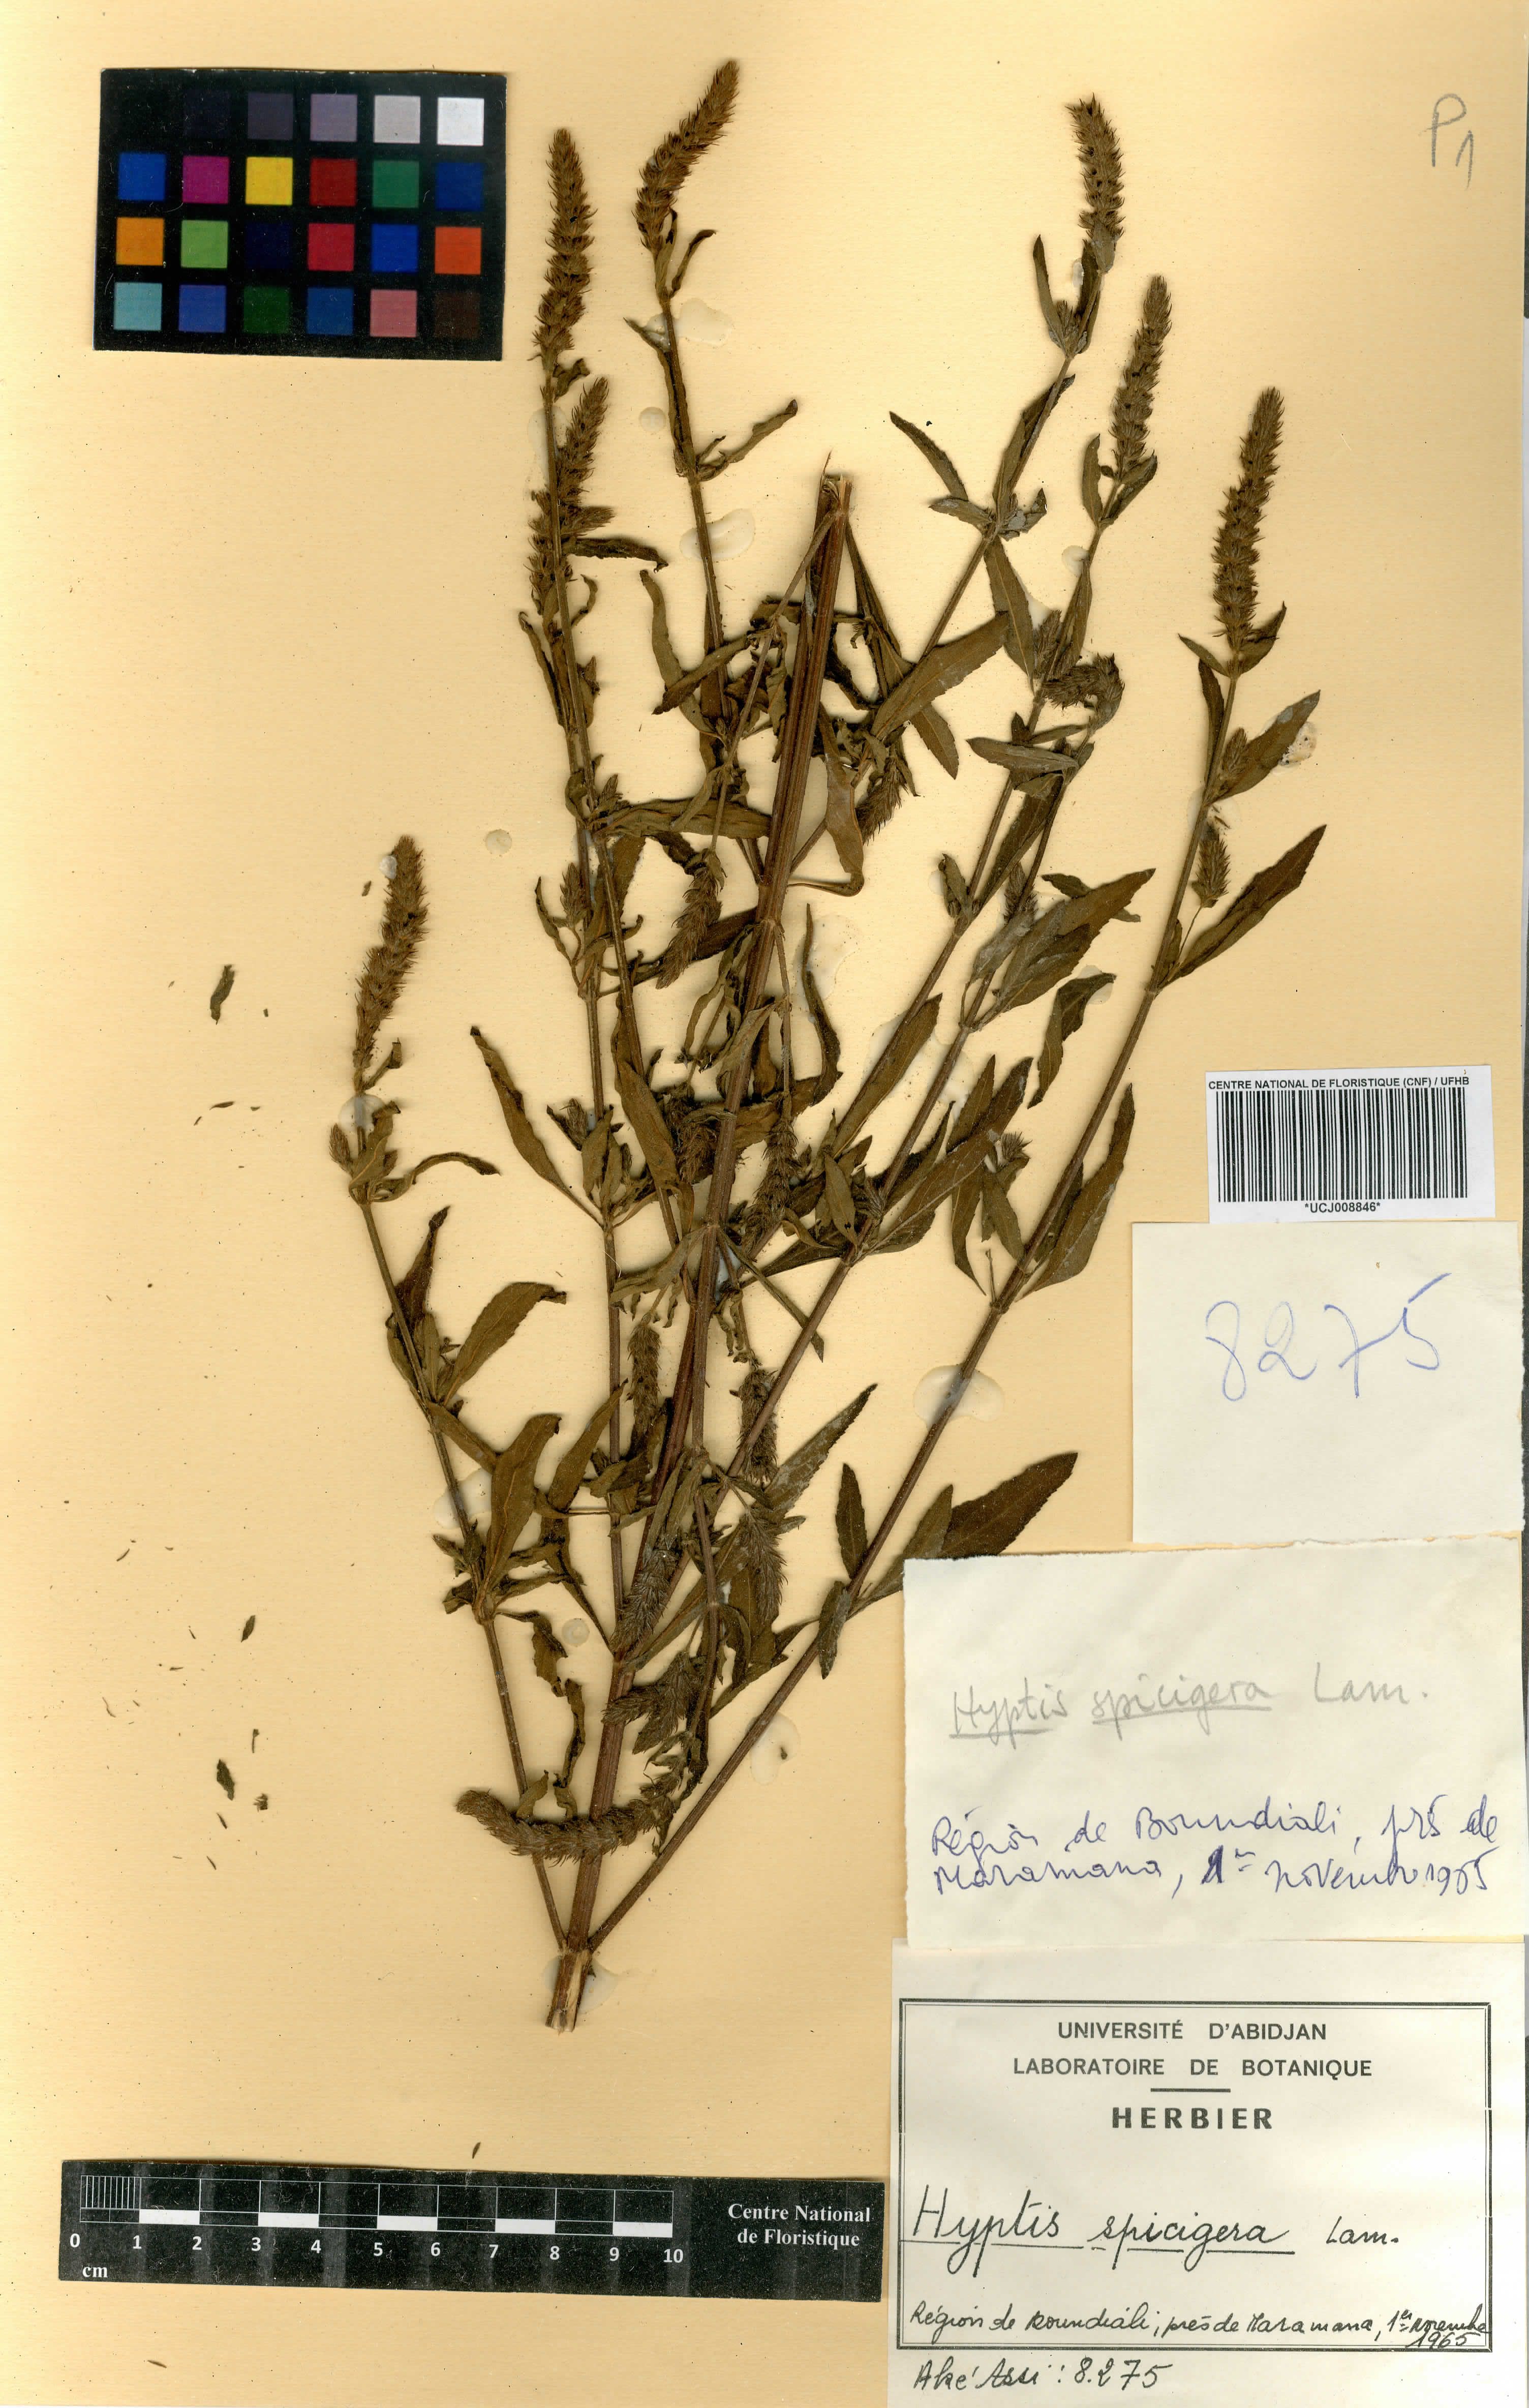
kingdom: Plantae
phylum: Tracheophyta
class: Magnoliopsida
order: Lamiales
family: Lamiaceae
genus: Cantinoa
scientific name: Cantinoa americana
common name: Black-sesame
